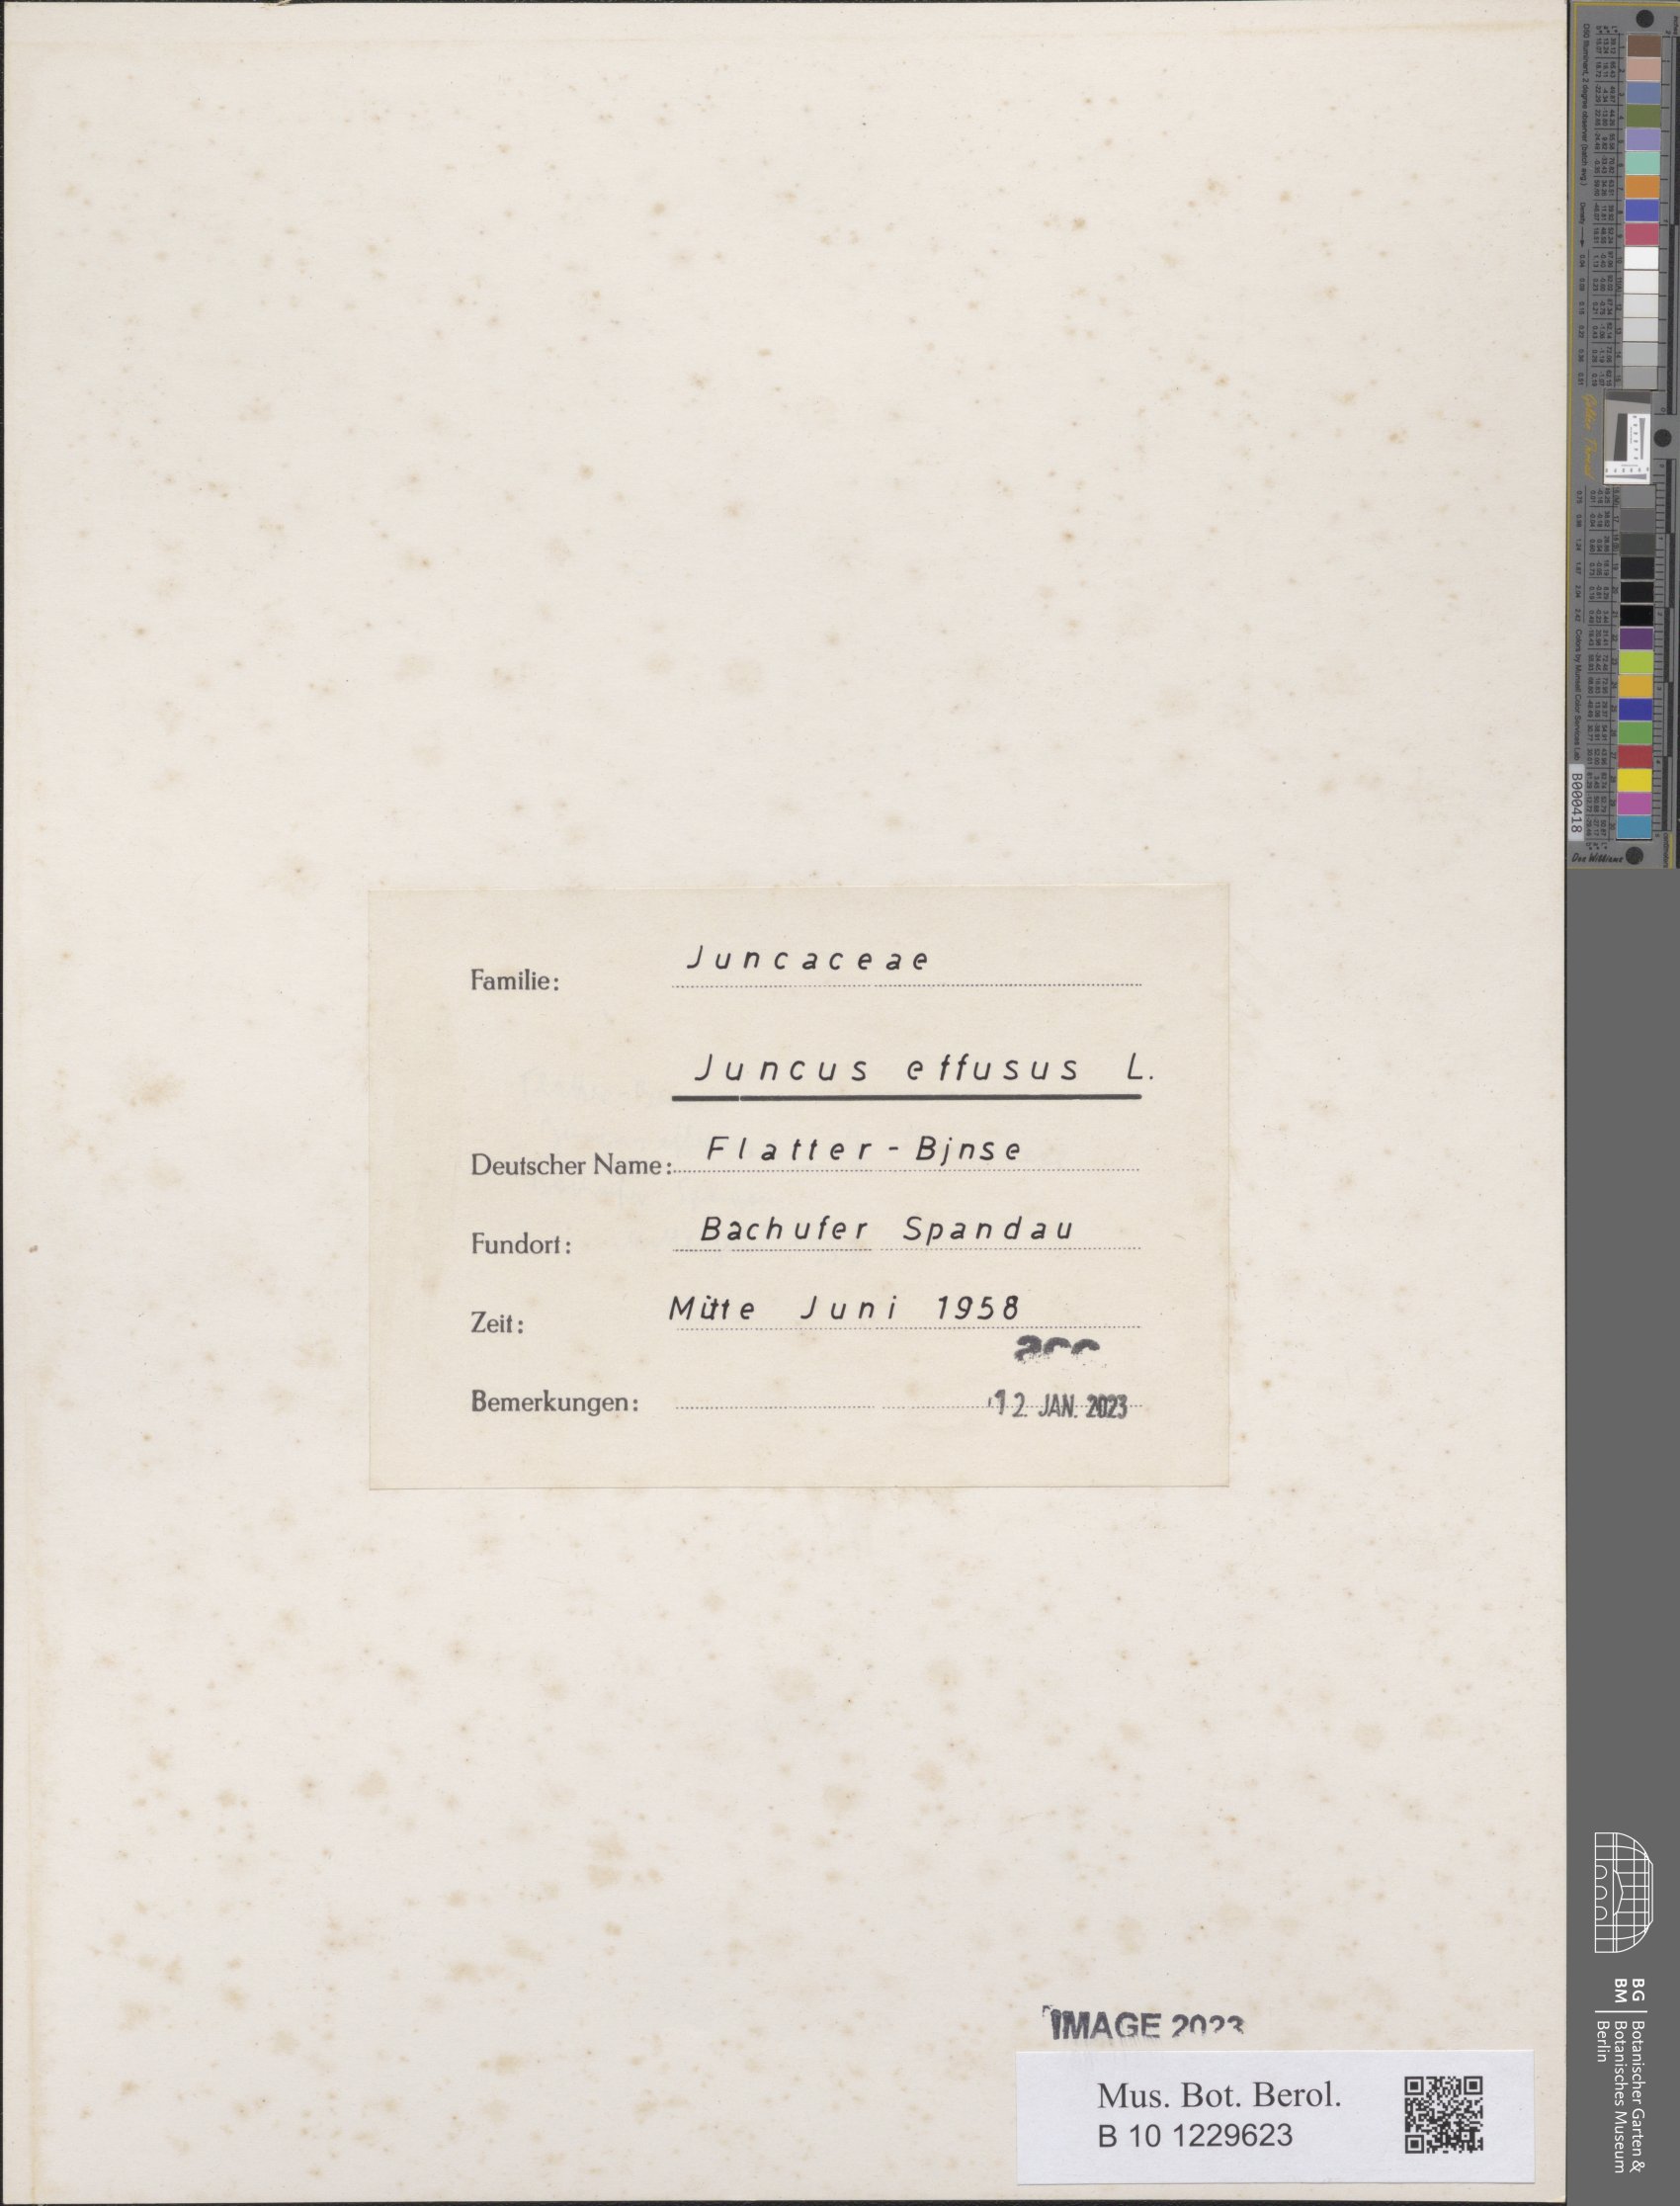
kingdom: Plantae
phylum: Tracheophyta
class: Liliopsida
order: Poales
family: Juncaceae
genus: Juncus
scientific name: Juncus effusus
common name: Soft rush
